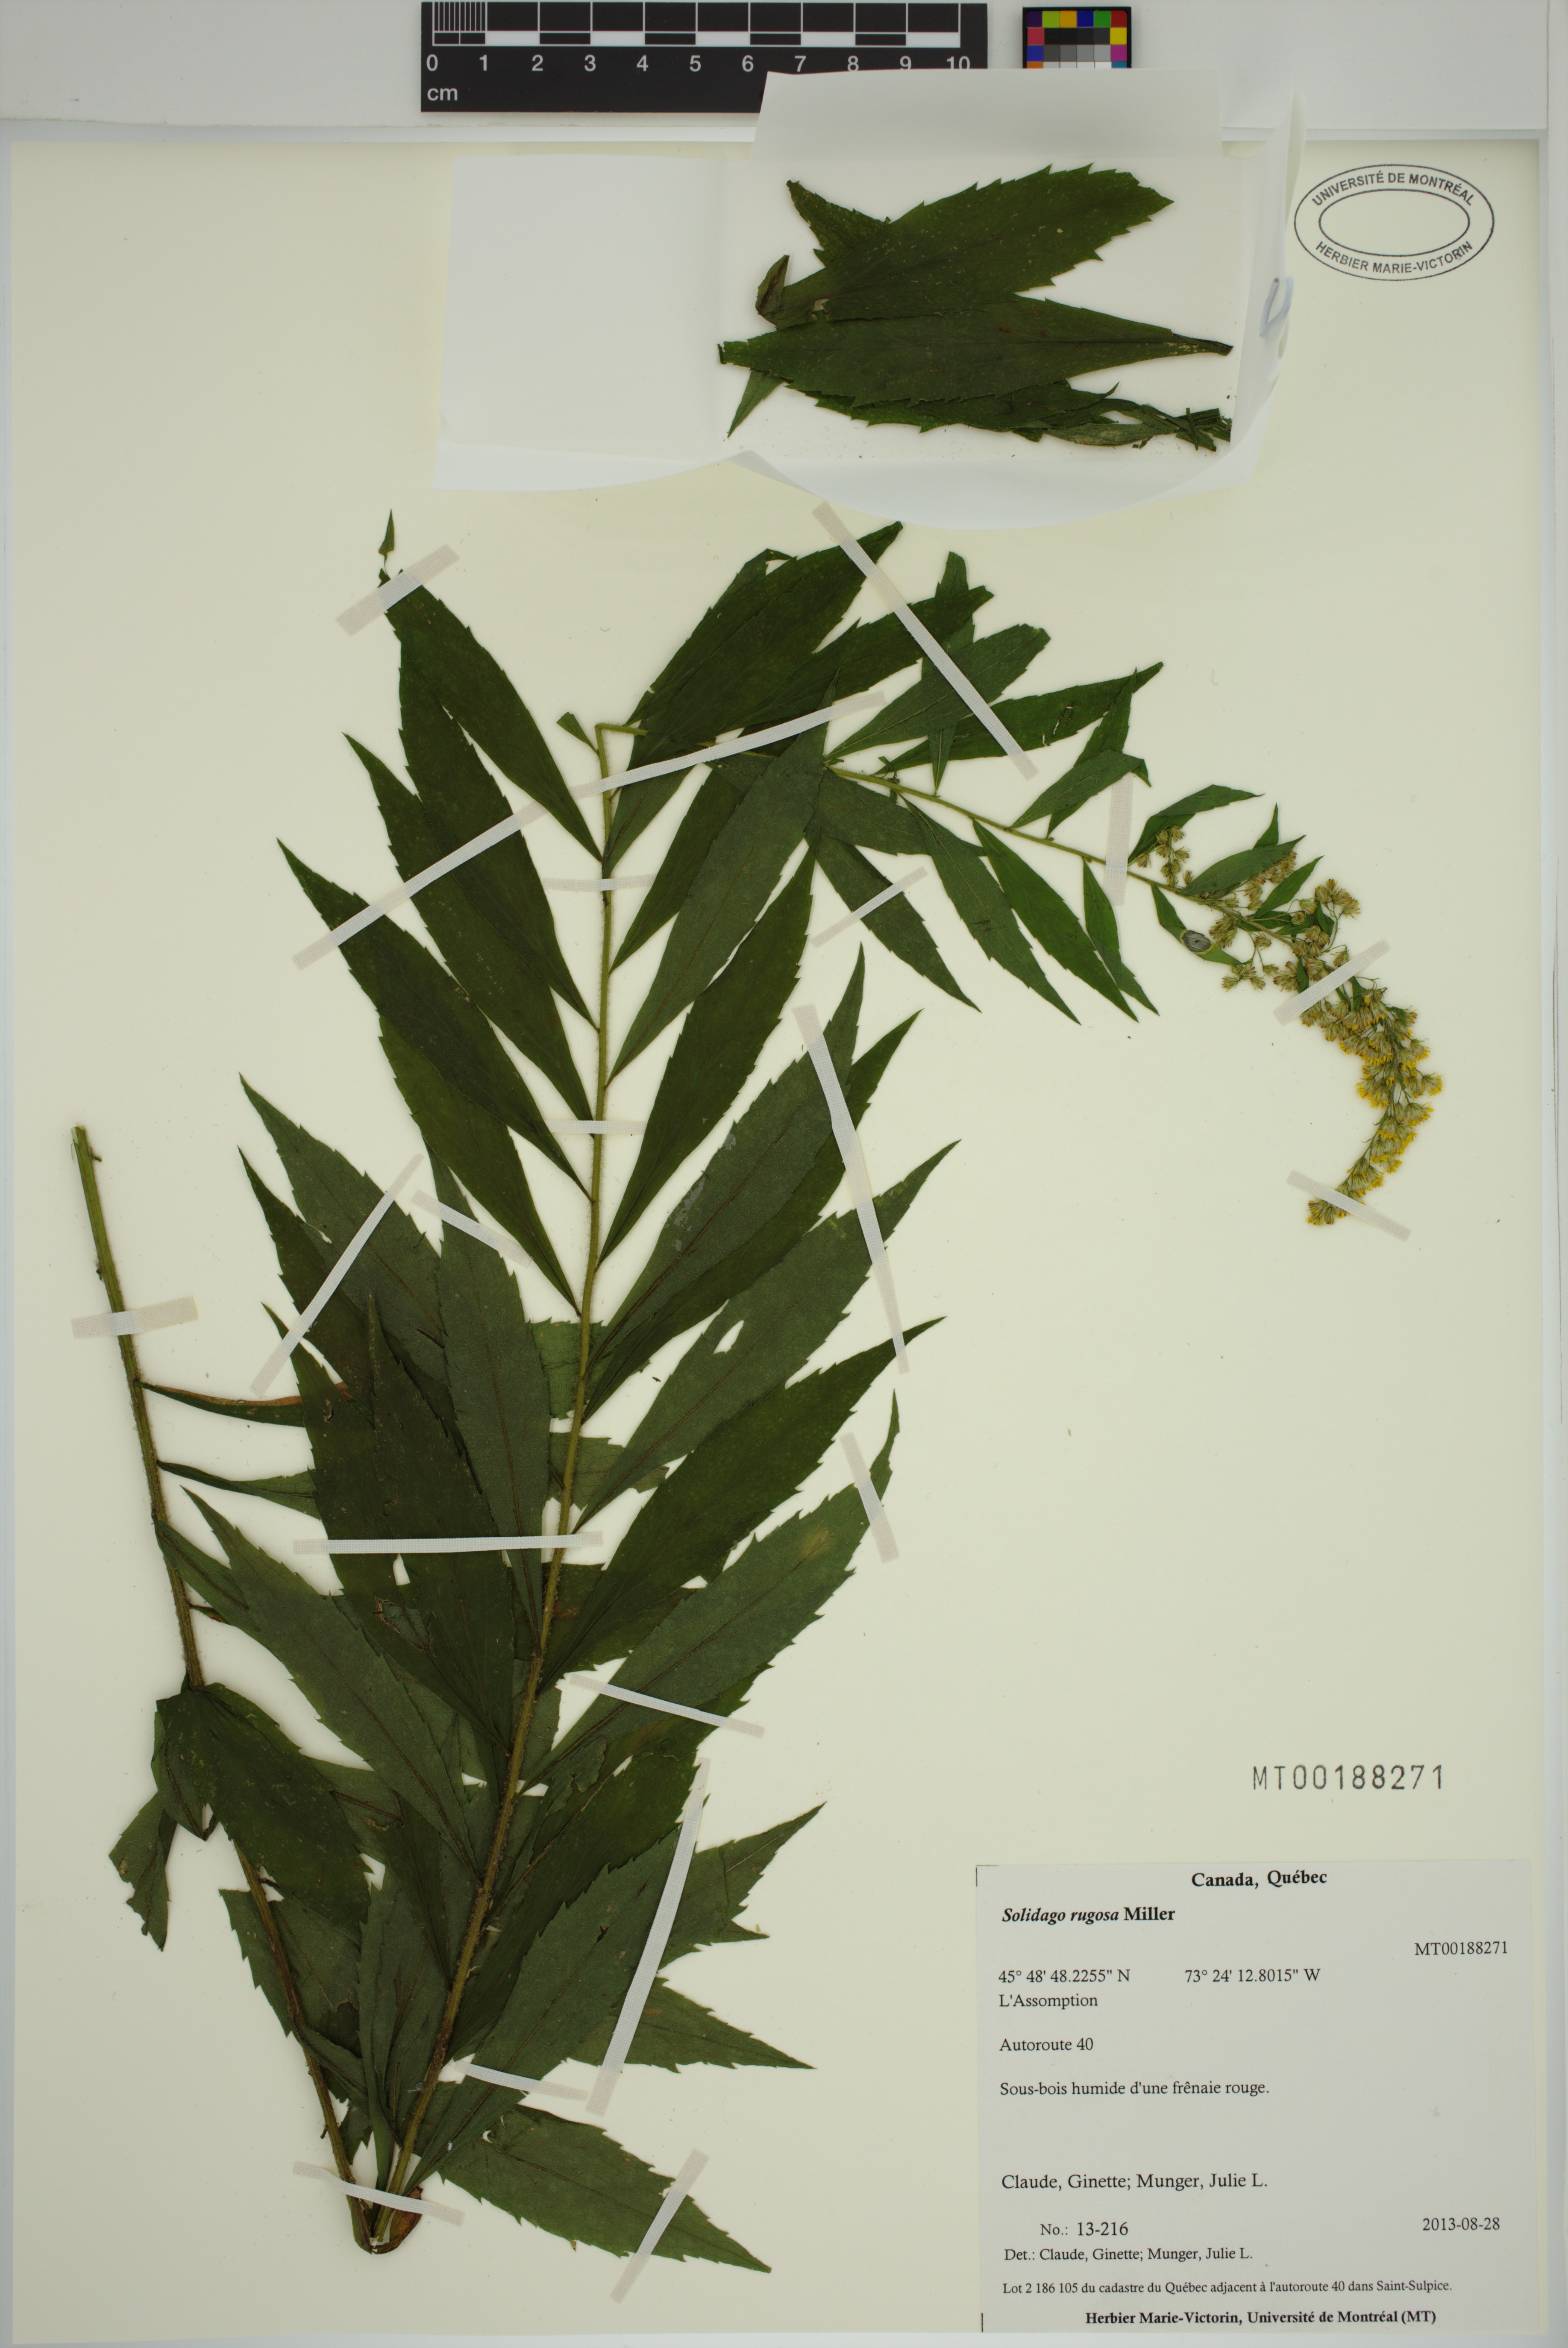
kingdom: Plantae
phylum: Tracheophyta
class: Magnoliopsida
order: Asterales
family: Asteraceae
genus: Solidago
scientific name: Solidago rugosa
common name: Rough-stemmed goldenrod
